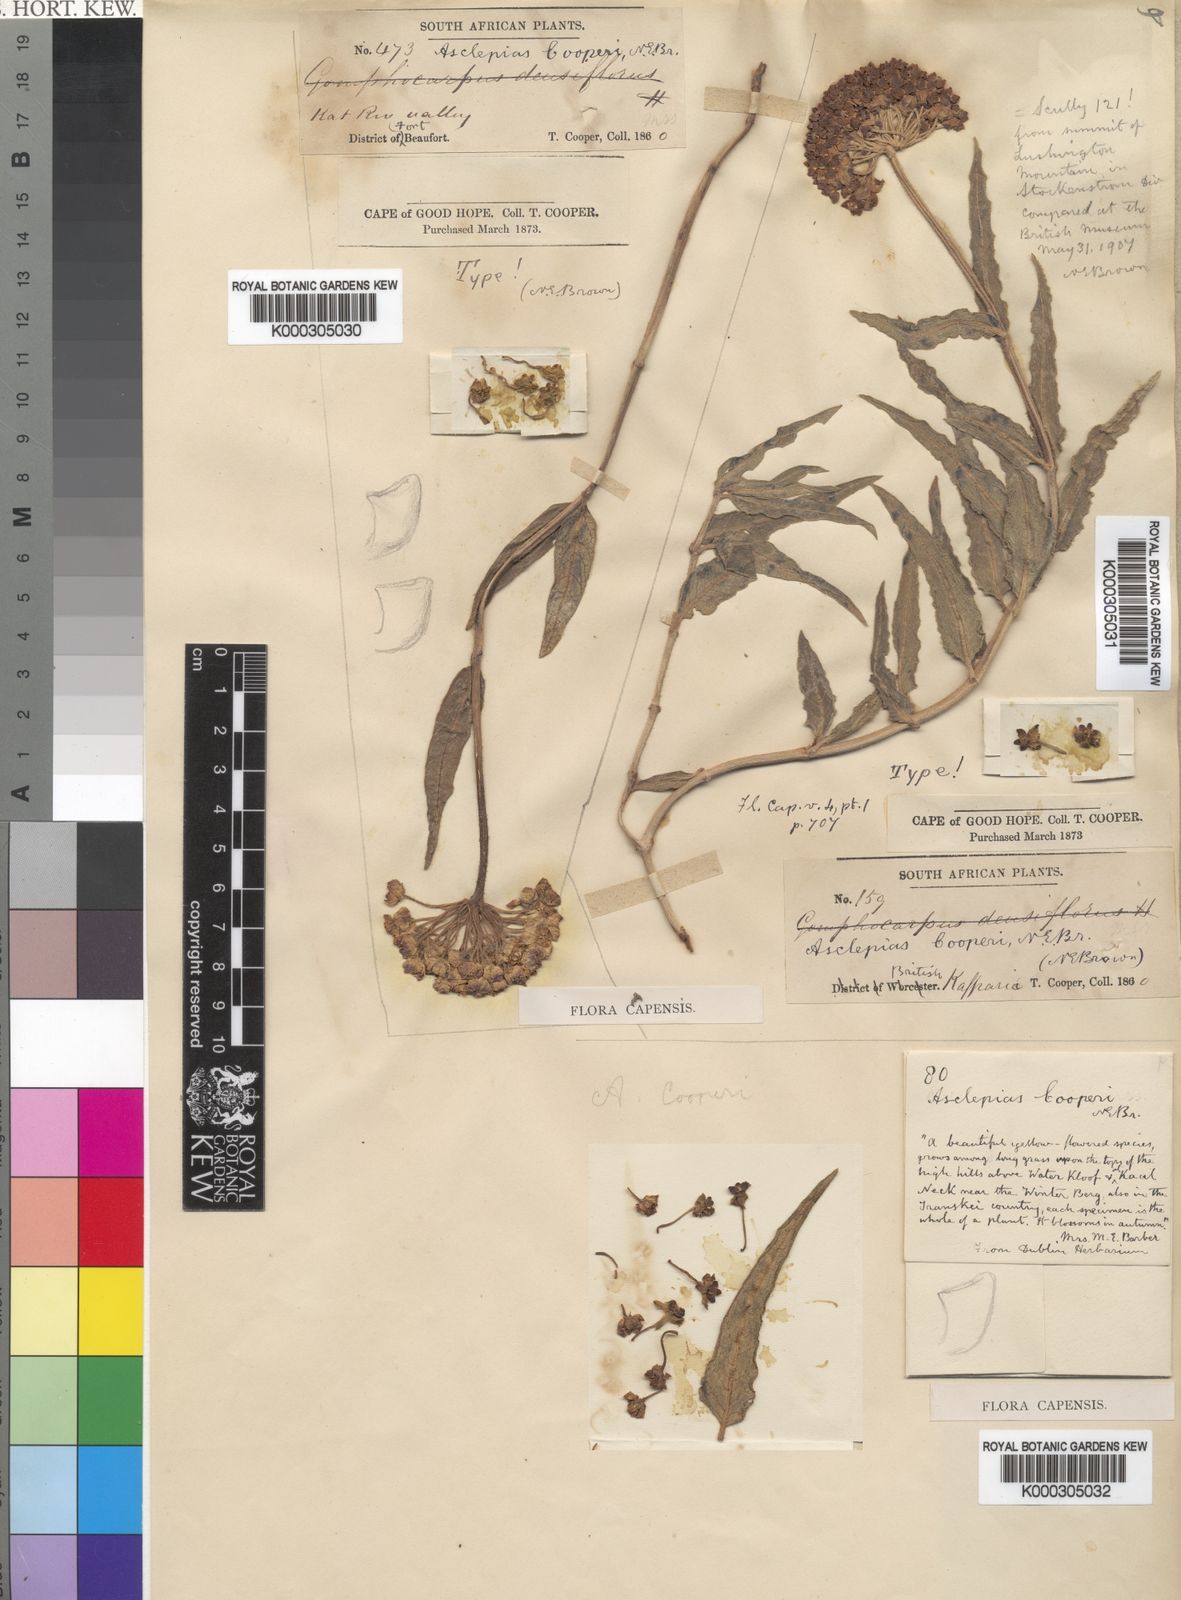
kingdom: Plantae
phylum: Tracheophyta
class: Magnoliopsida
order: Gentianales
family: Apocynaceae
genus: Asclepias
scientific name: Asclepias cooperi
